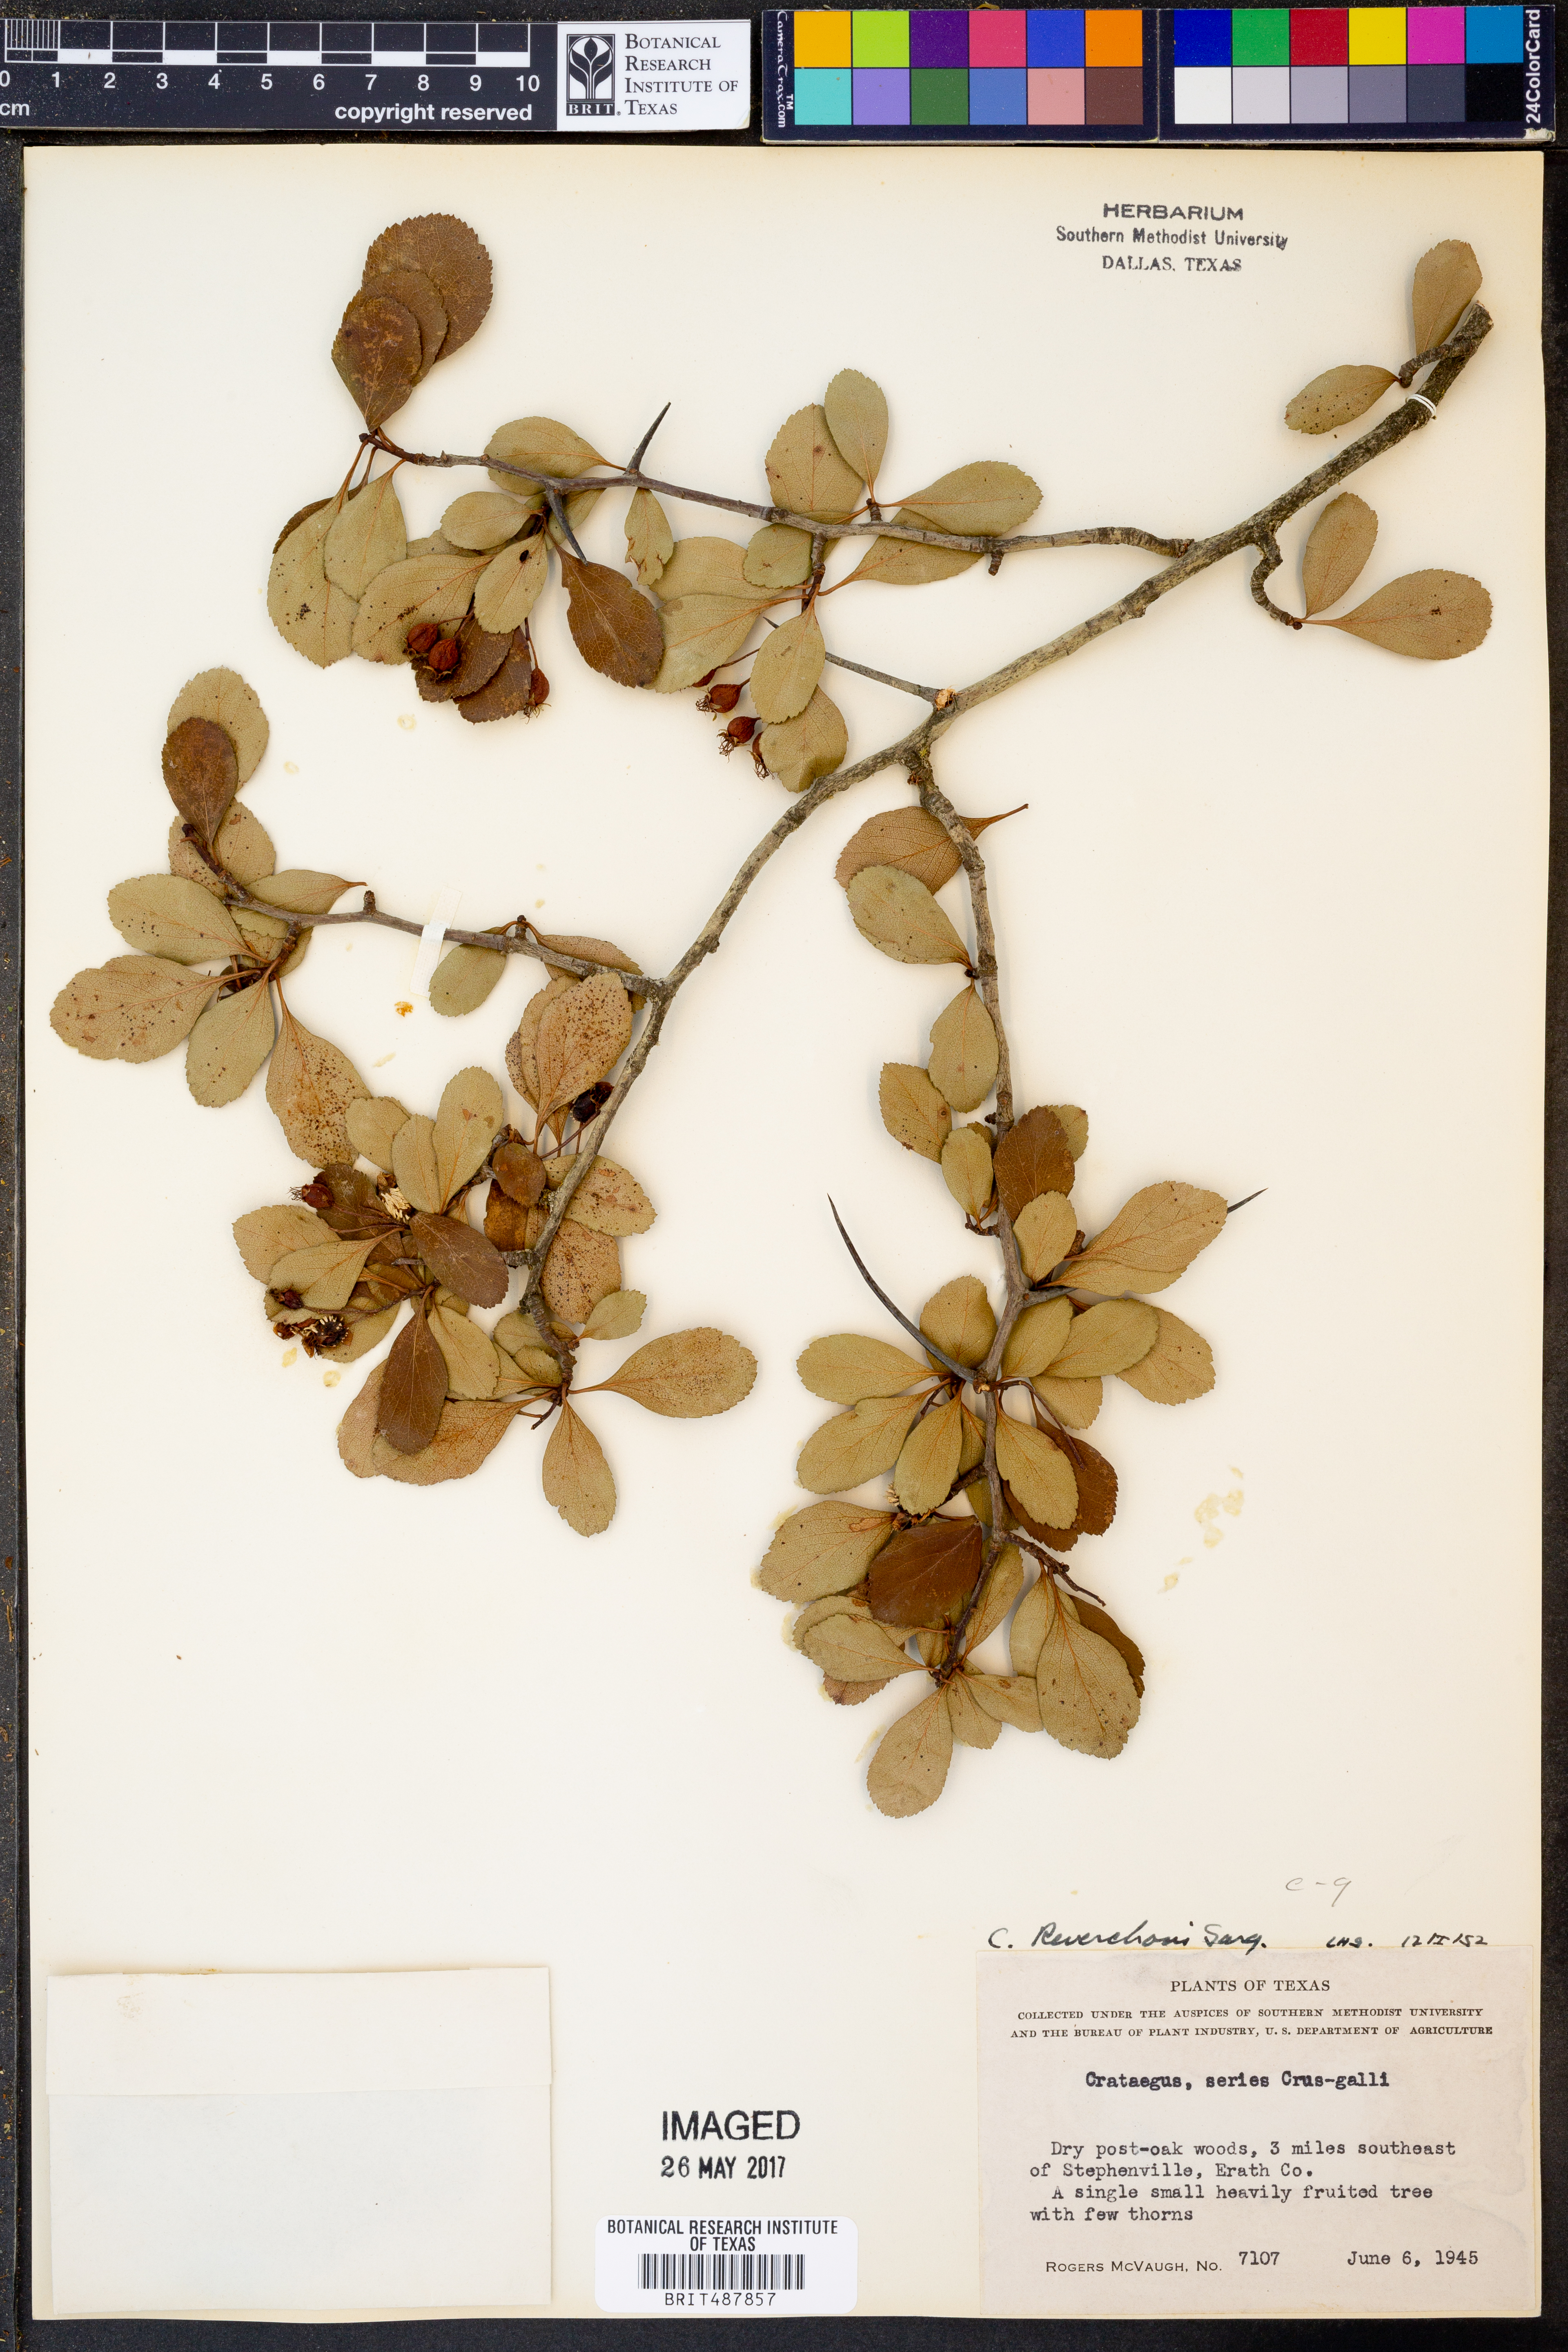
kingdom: Plantae
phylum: Tracheophyta
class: Magnoliopsida
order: Rosales
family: Rosaceae
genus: Crataegus
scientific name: Crataegus reverchonii
